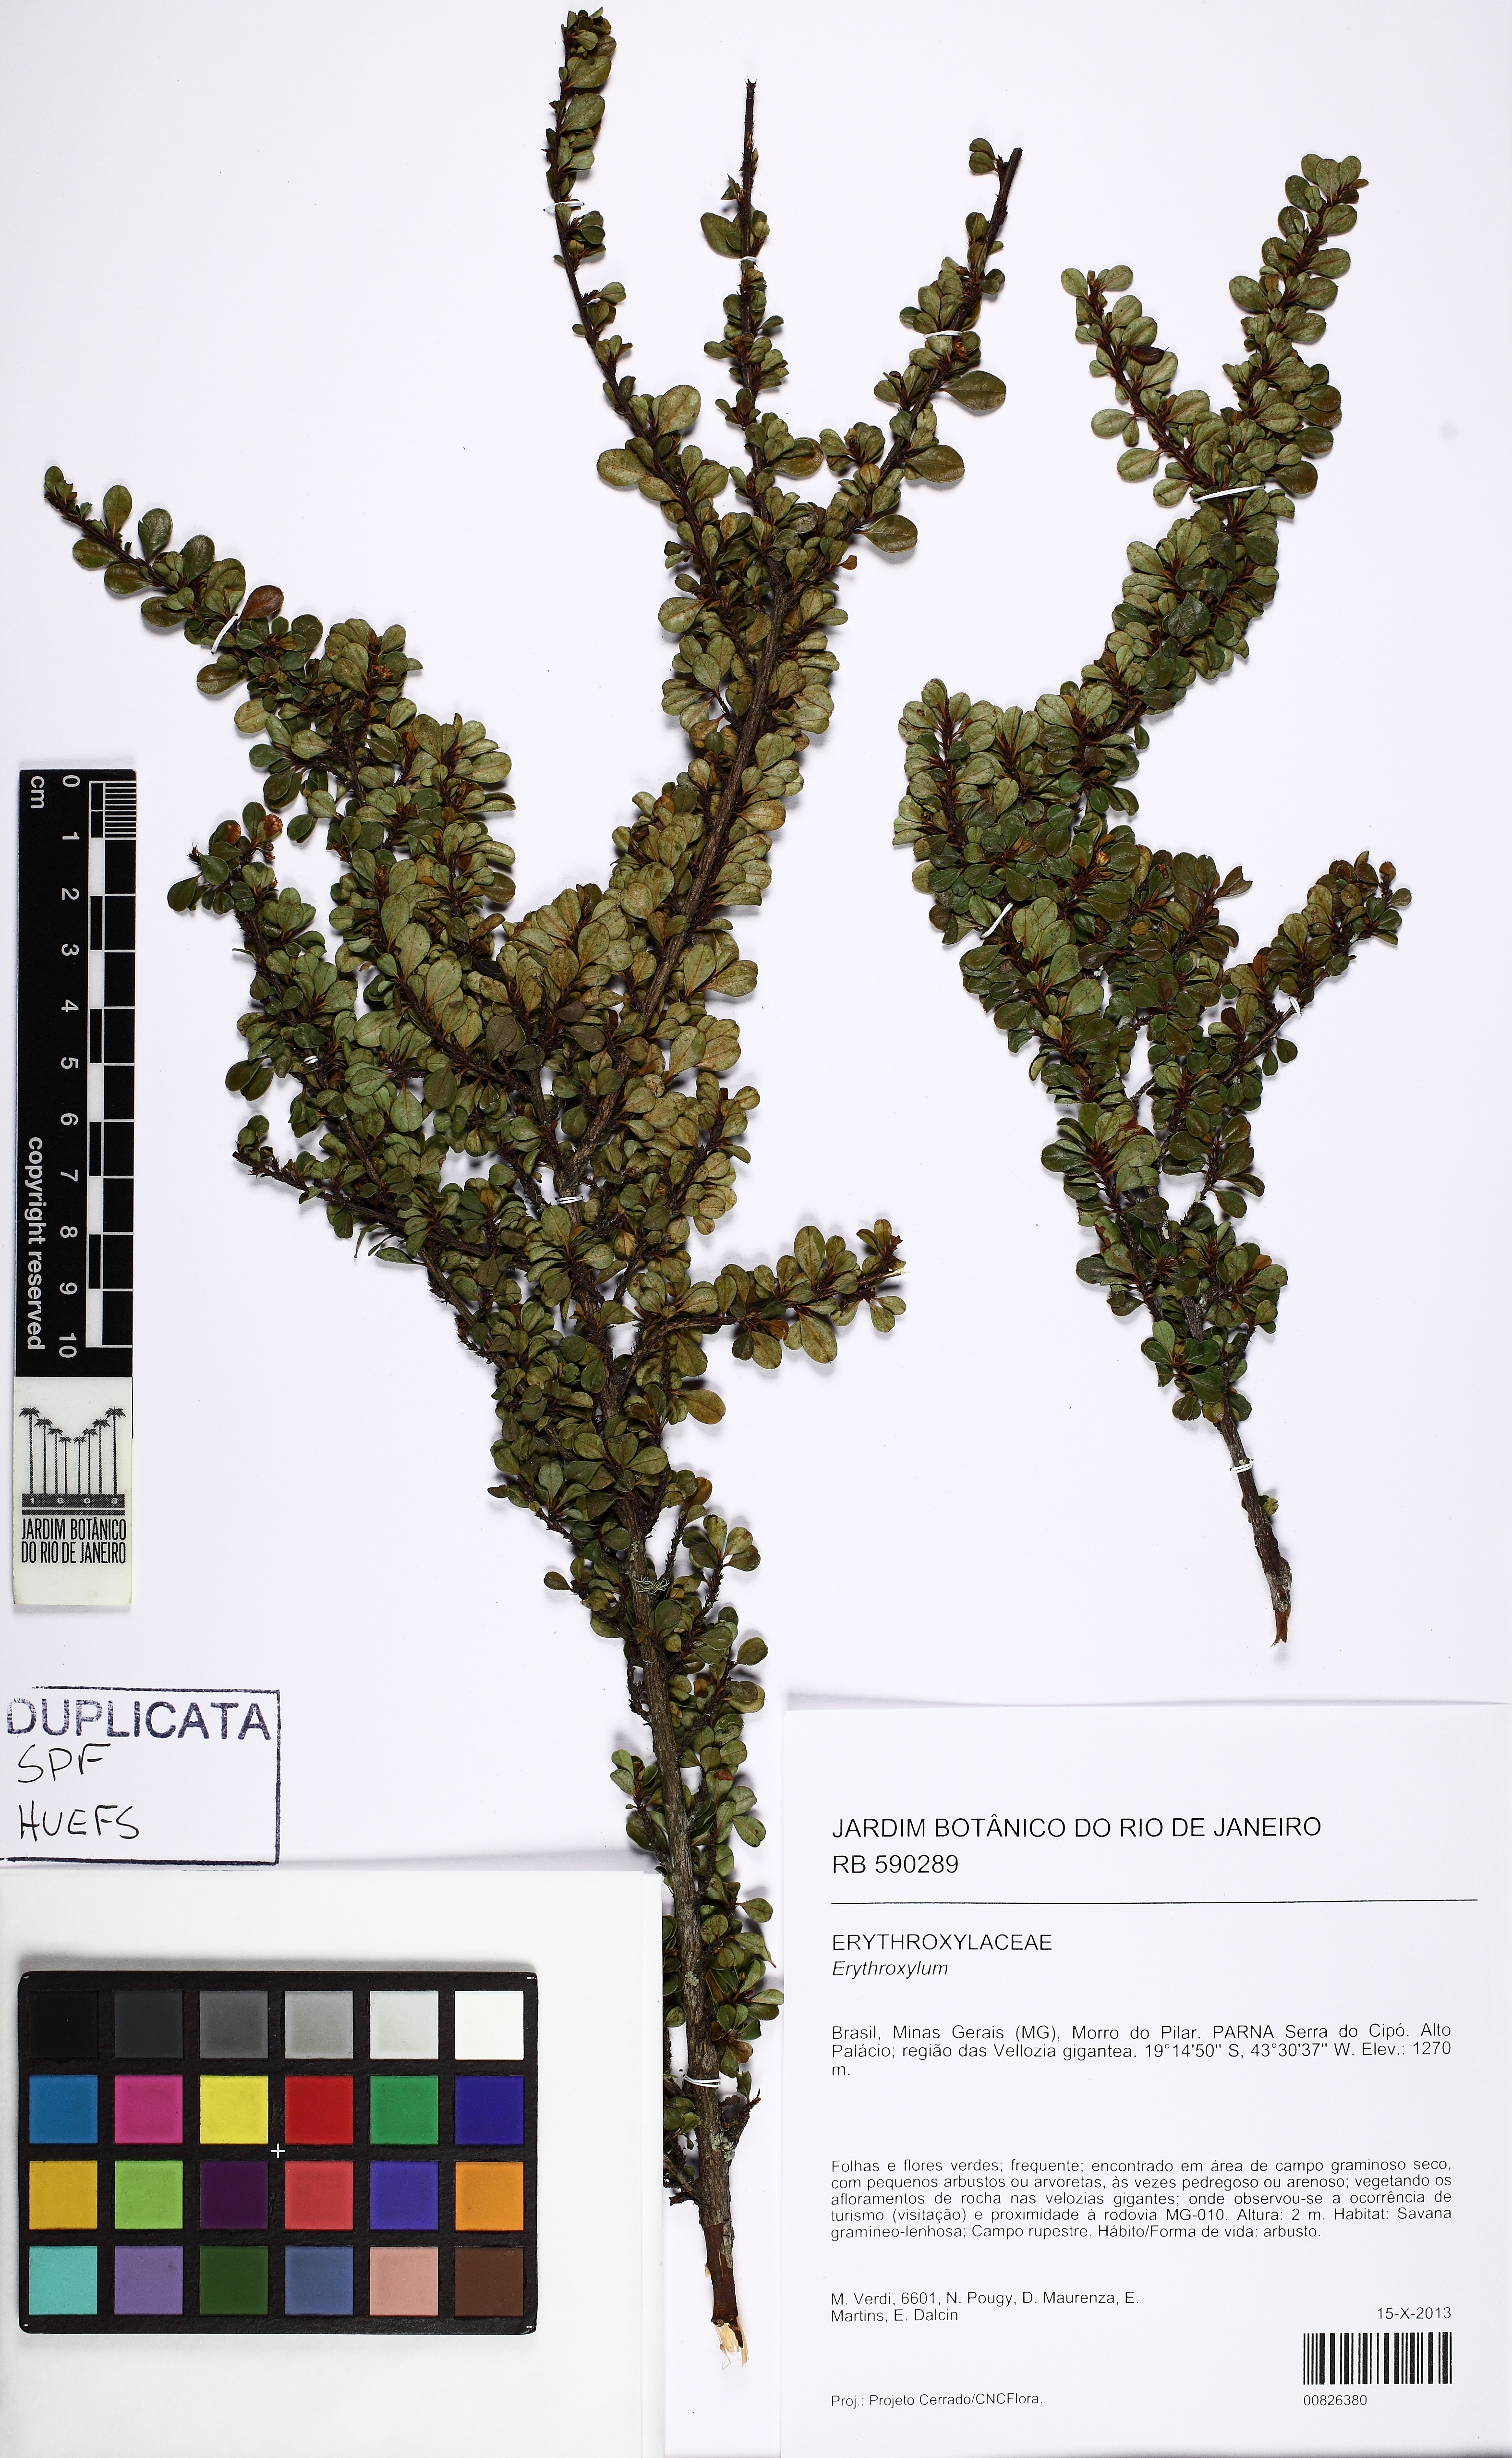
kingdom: Plantae
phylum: Tracheophyta
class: Magnoliopsida
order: Malpighiales
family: Erythroxylaceae
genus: Erythroxylum
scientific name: Erythroxylum gonoclados
